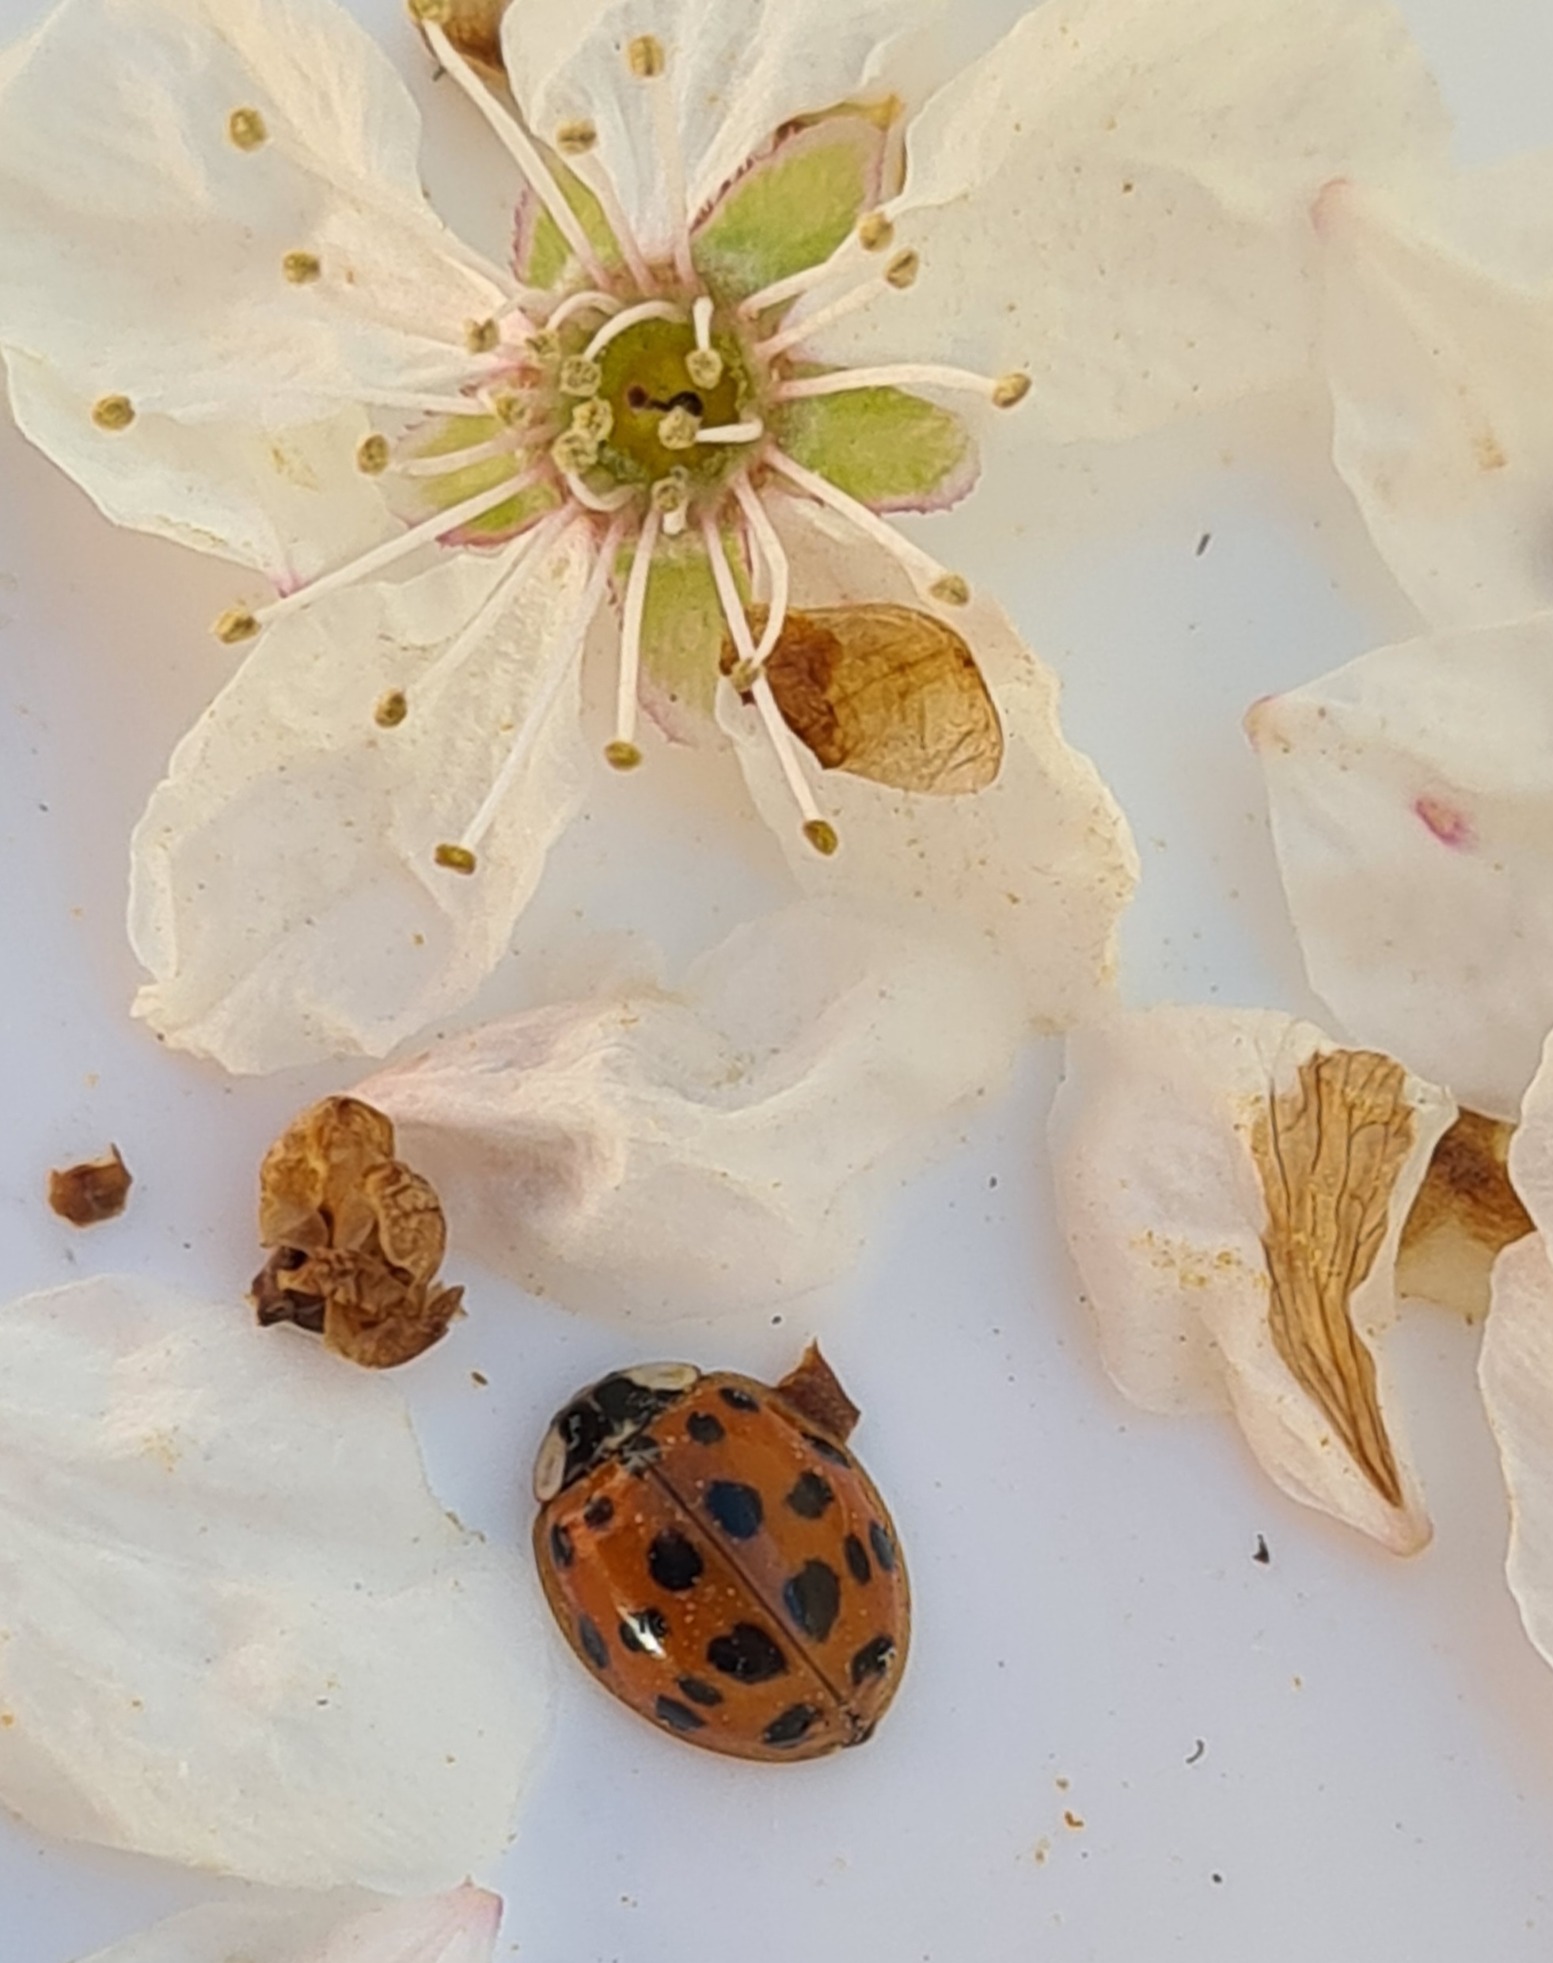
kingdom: Animalia
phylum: Arthropoda
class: Insecta
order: Coleoptera
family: Coccinellidae
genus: Harmonia
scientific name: Harmonia axyridis
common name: Harlekinmariehøne
